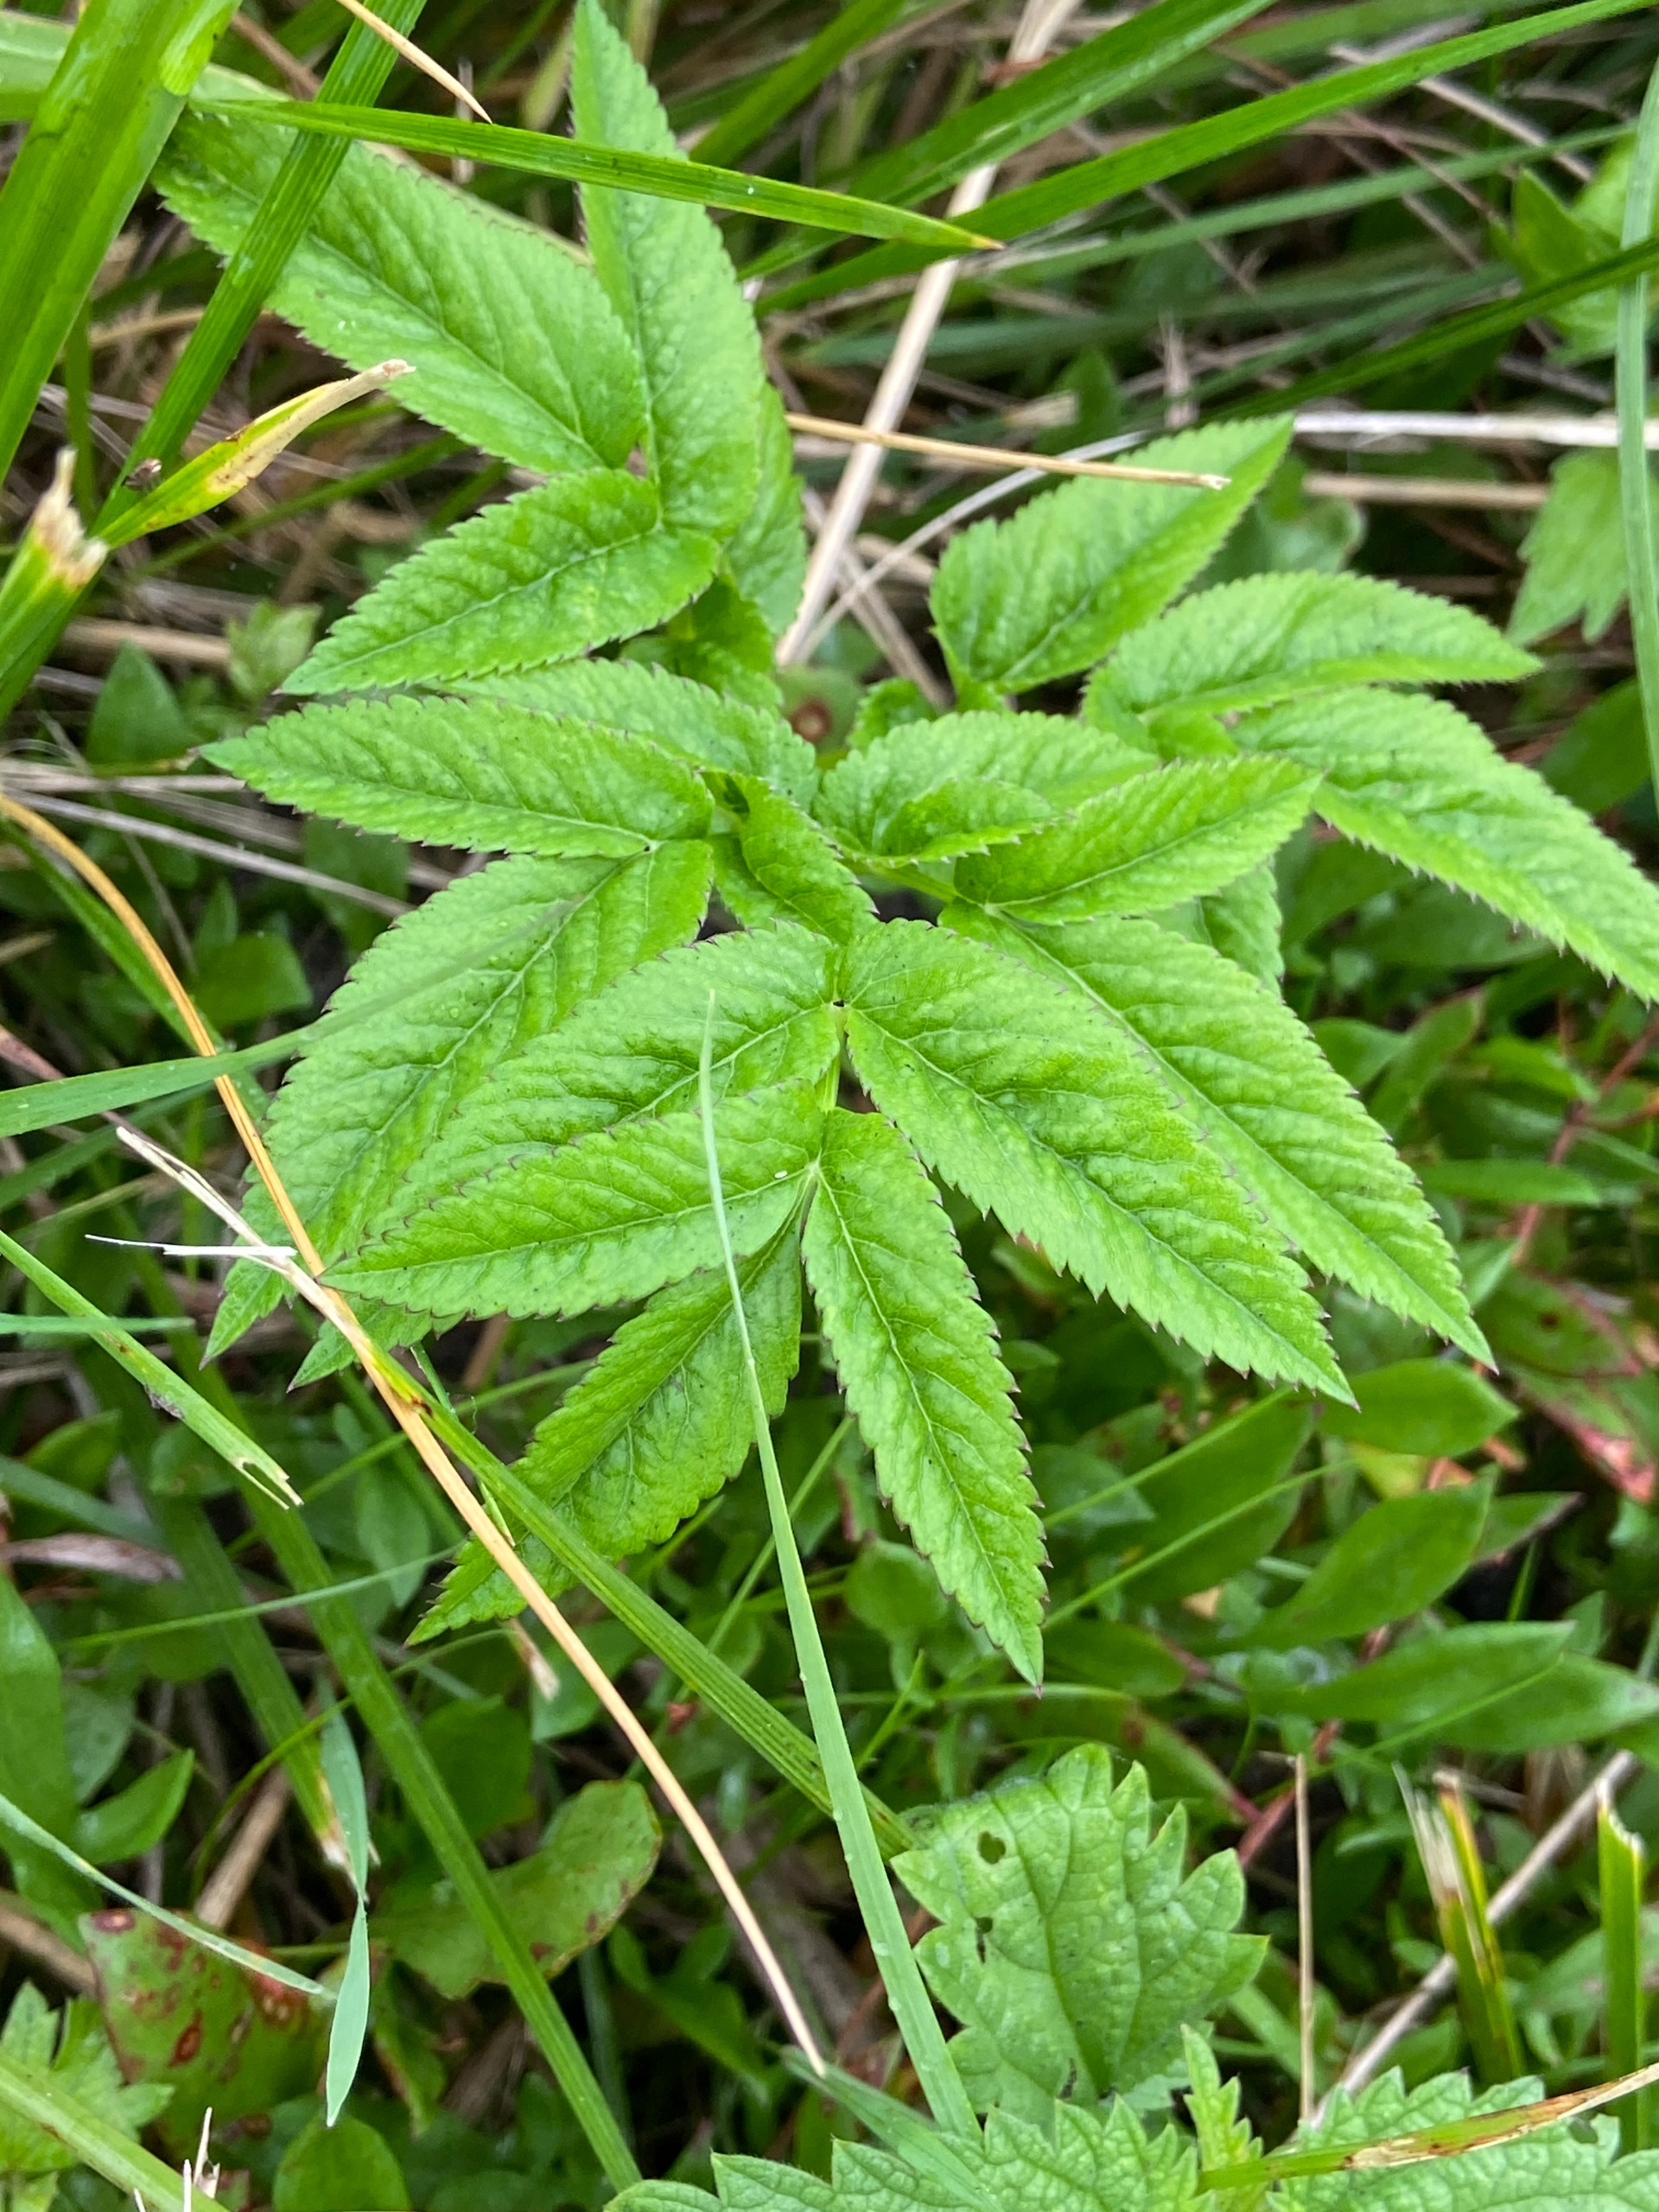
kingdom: Plantae
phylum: Tracheophyta
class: Magnoliopsida
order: Apiales
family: Apiaceae
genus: Angelica
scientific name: Angelica sylvestris
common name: Angelik
